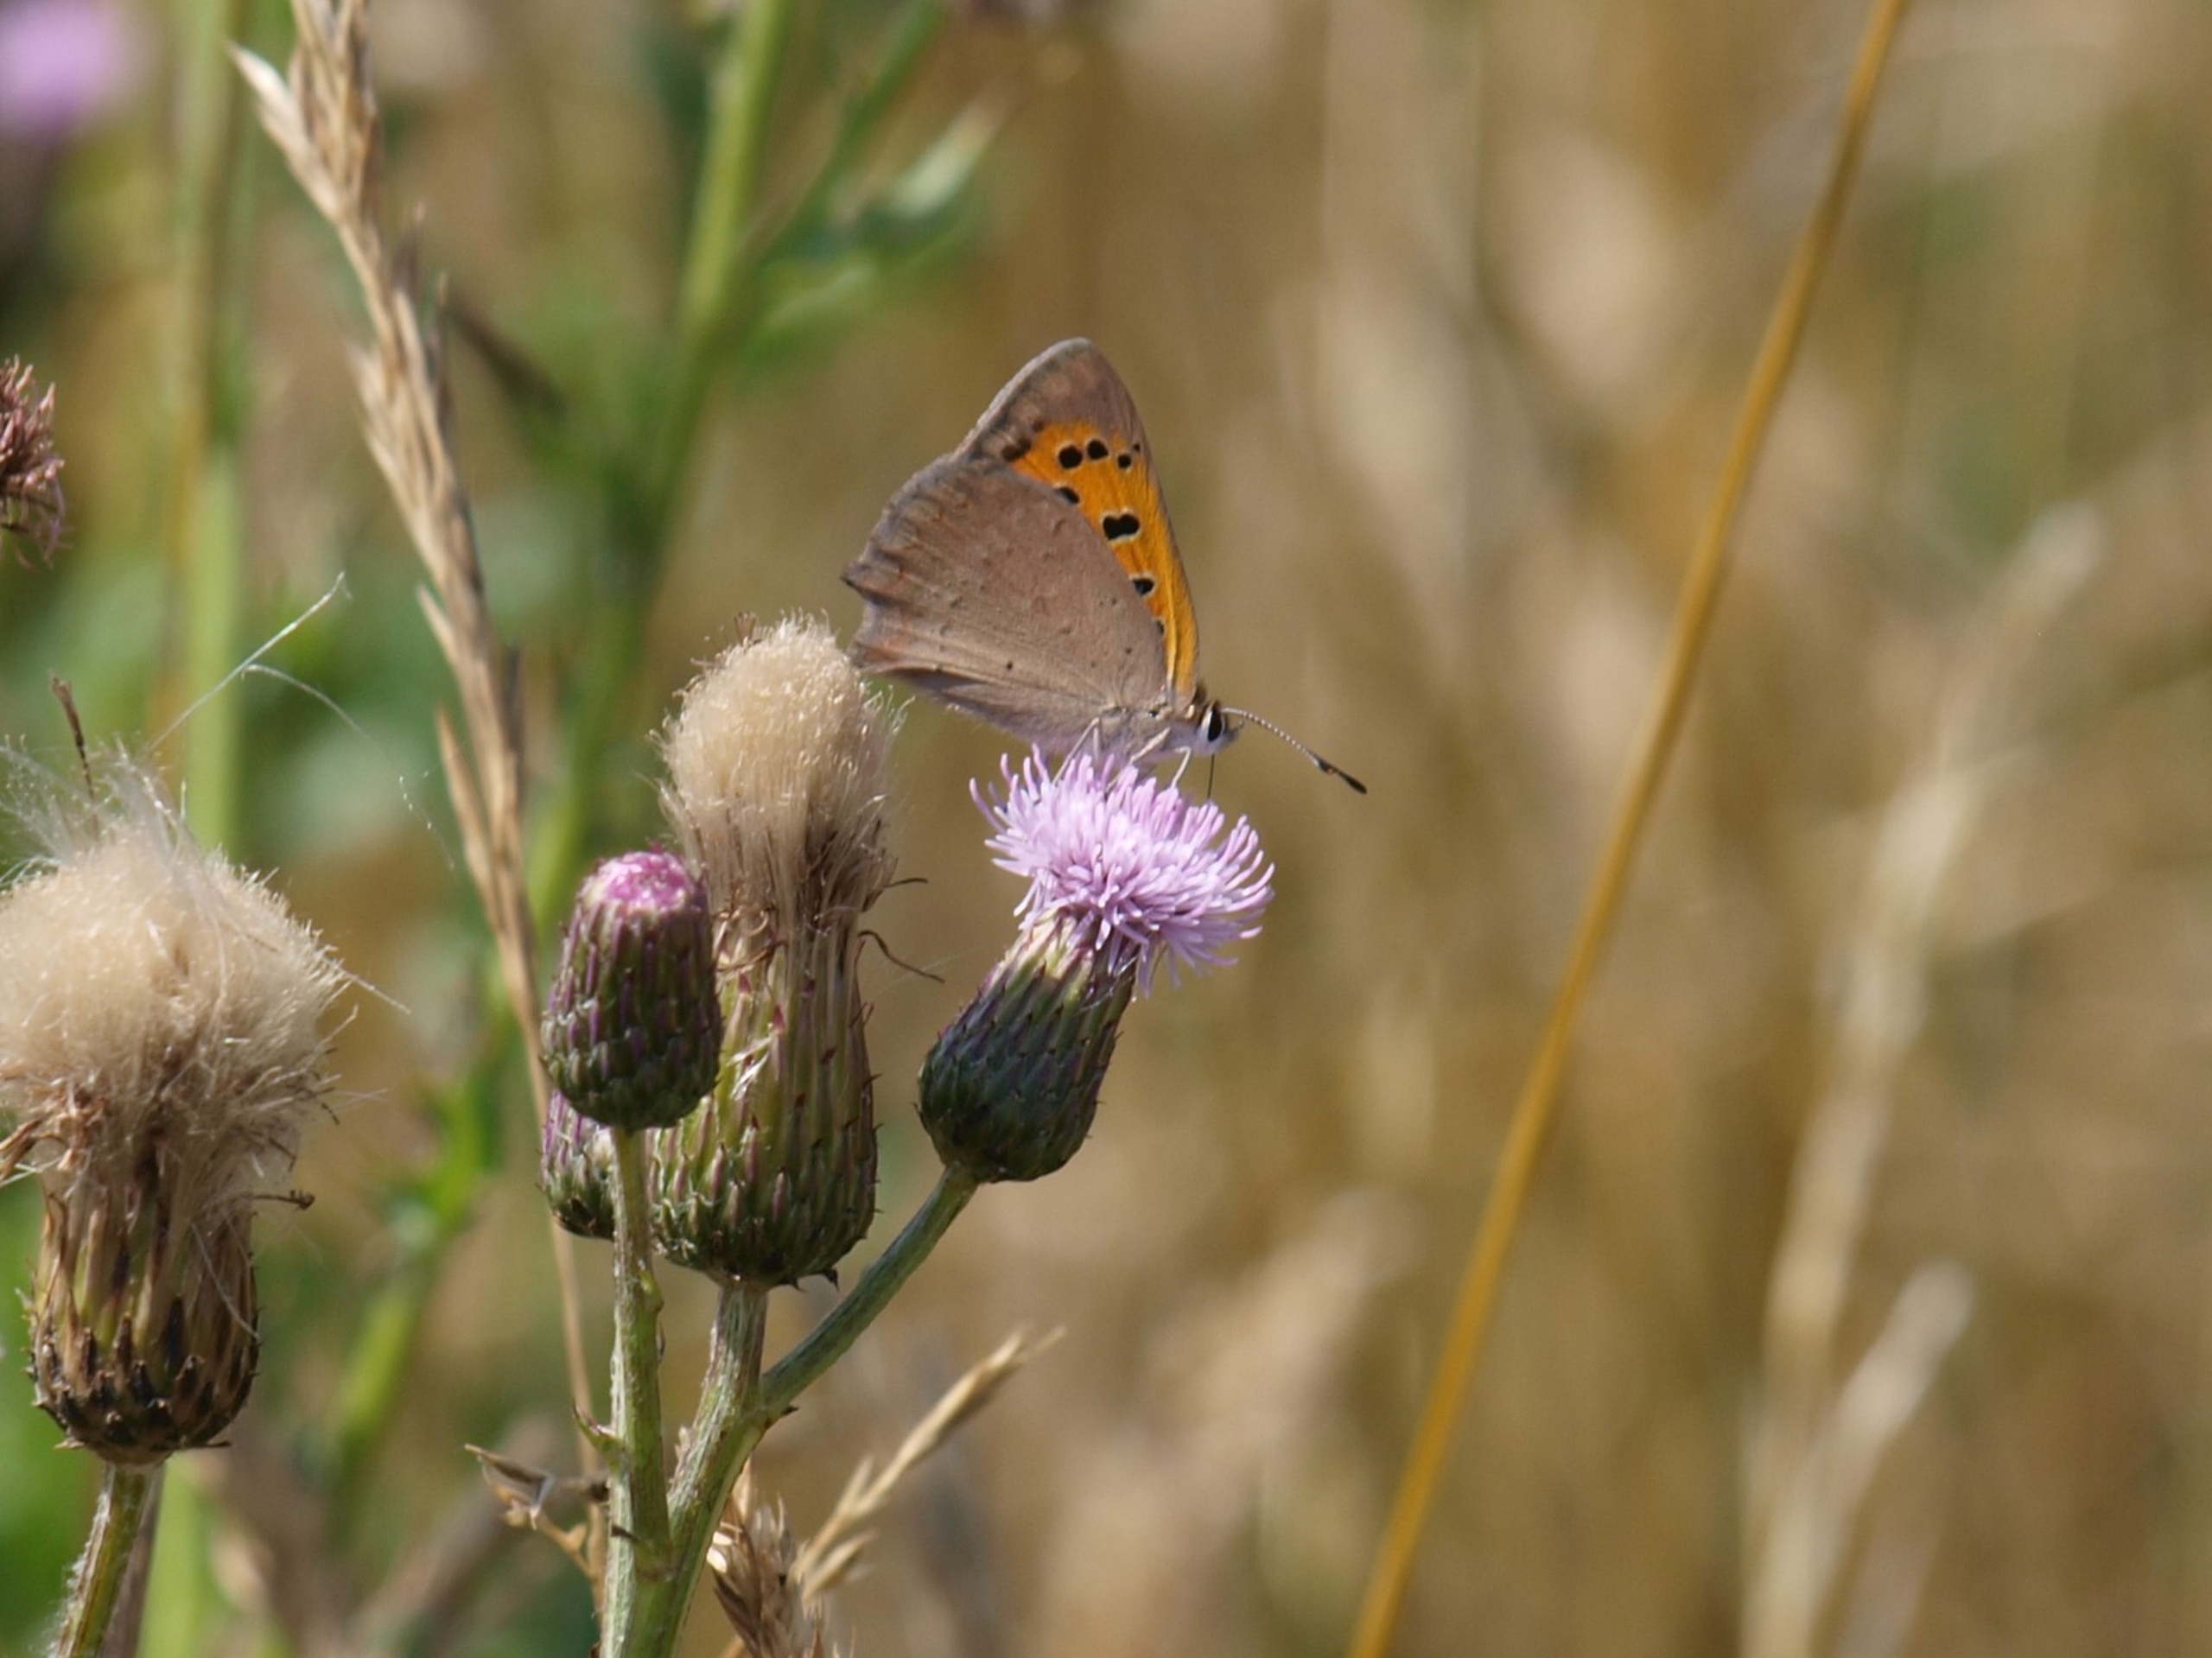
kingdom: Animalia
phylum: Arthropoda
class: Insecta
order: Lepidoptera
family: Lycaenidae
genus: Lycaena
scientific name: Lycaena phlaeas
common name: Lille ildfugl
